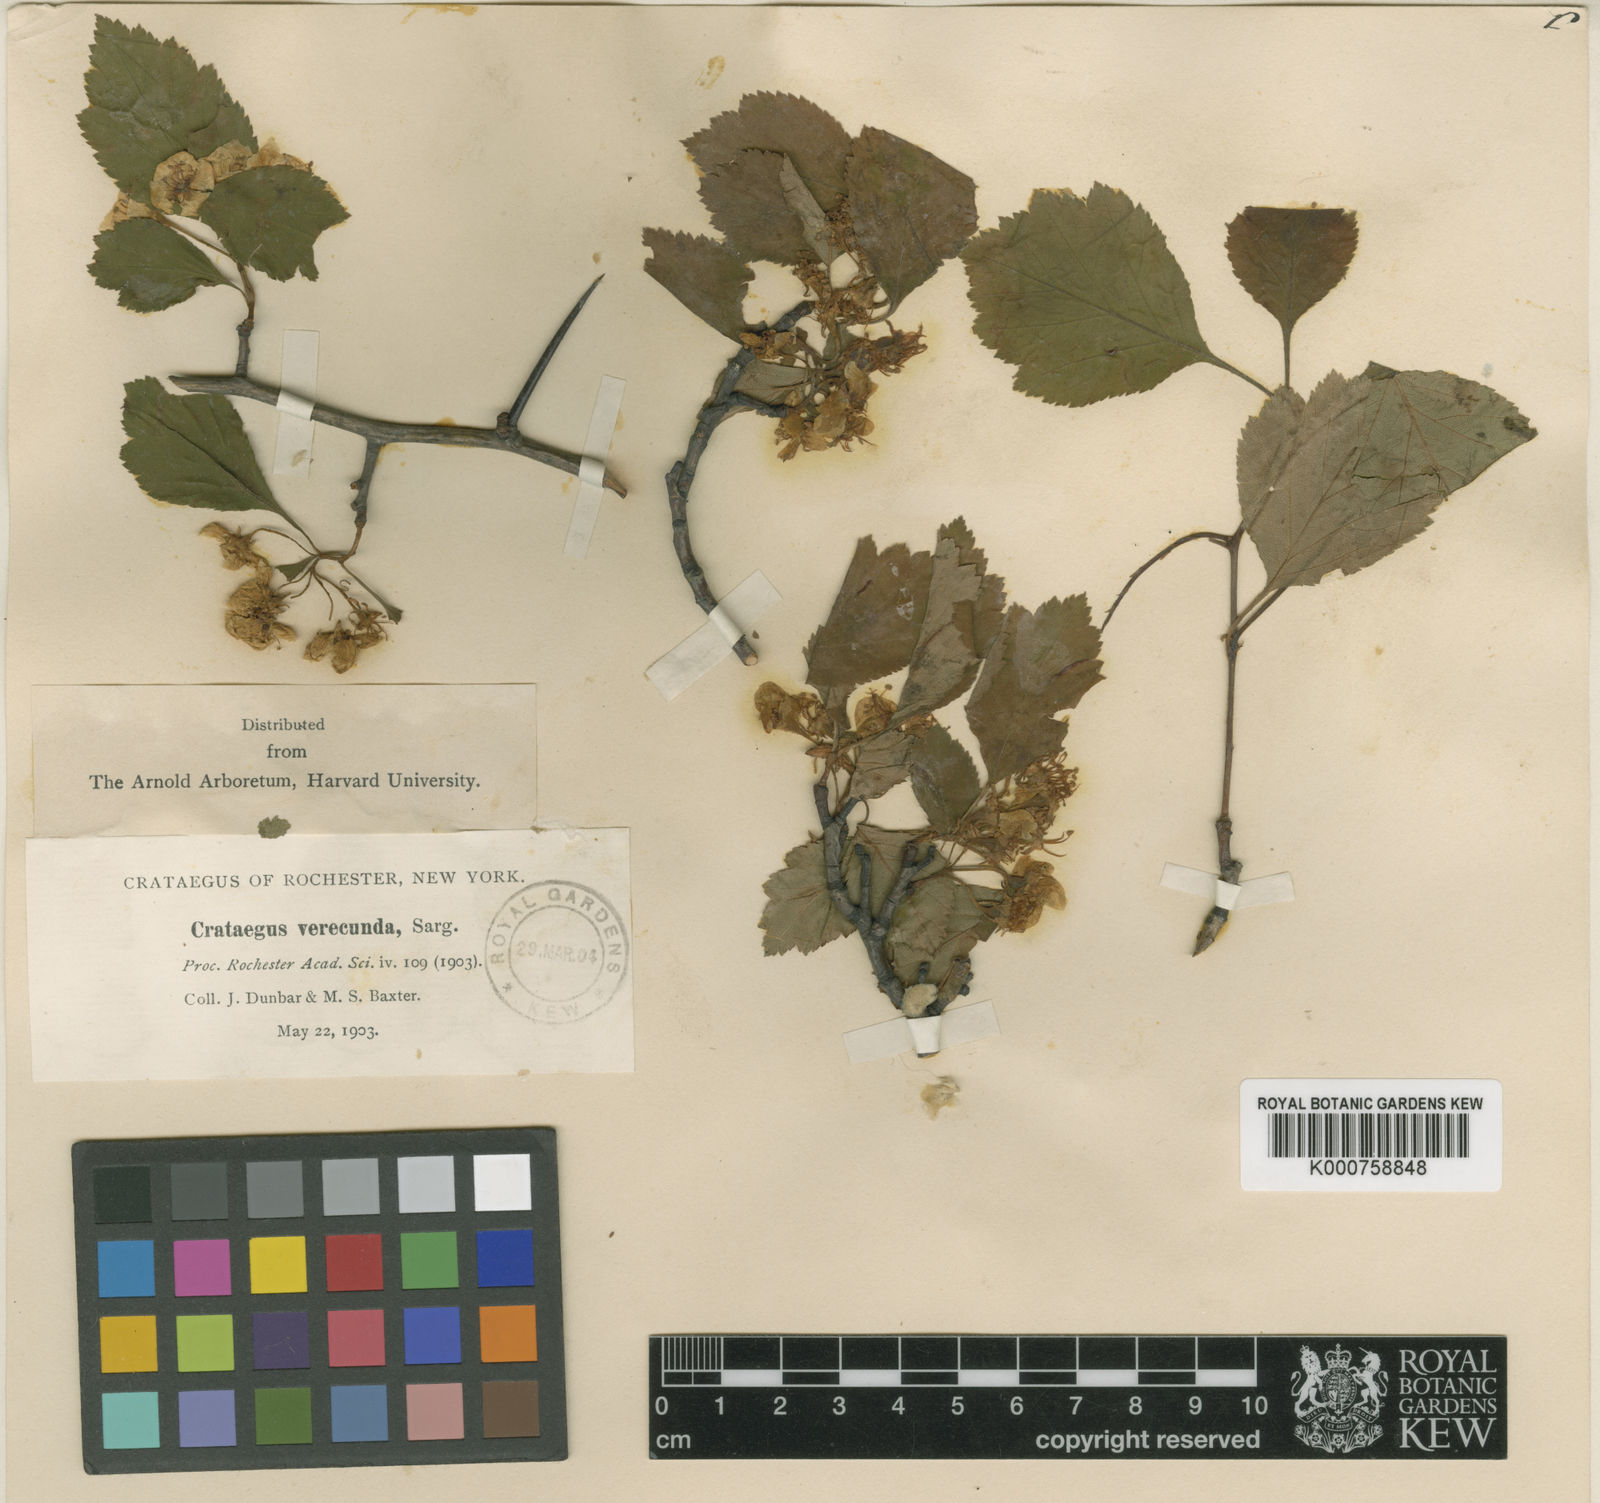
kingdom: Plantae
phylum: Tracheophyta
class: Magnoliopsida
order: Rosales
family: Rosaceae
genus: Crataegus
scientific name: Crataegus intricata
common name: Biltmore hawthorn
